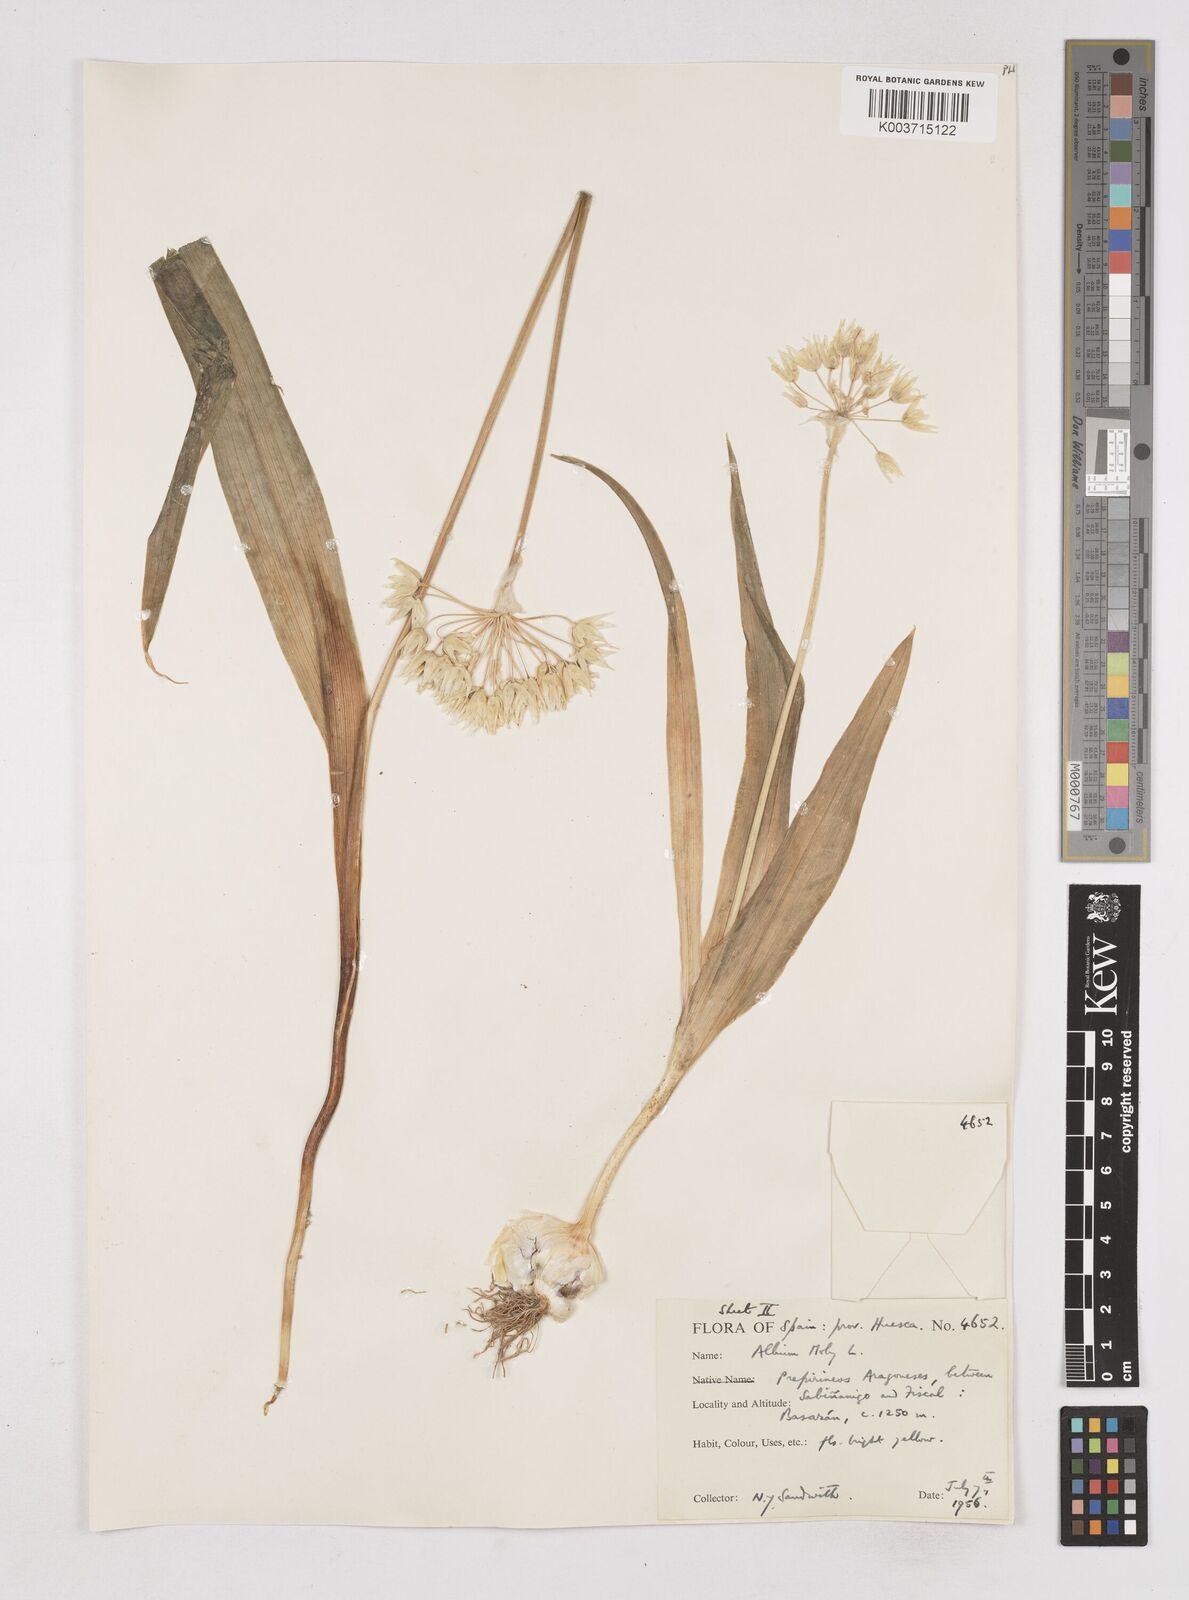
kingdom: Plantae
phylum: Tracheophyta
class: Liliopsida
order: Asparagales
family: Amaryllidaceae
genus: Allium
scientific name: Allium moly
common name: Yellow garlic
